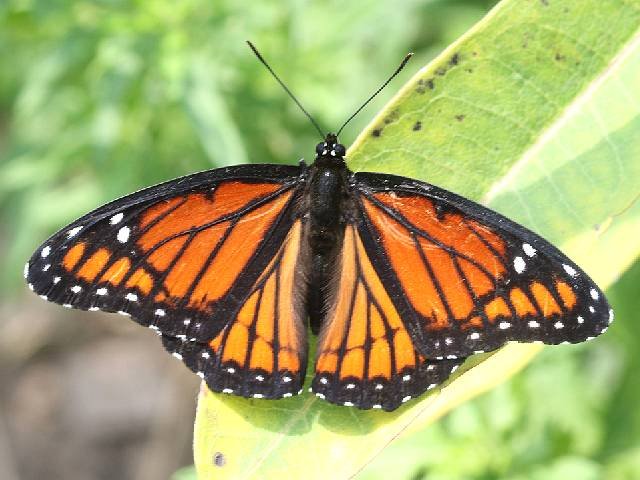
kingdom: Animalia
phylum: Arthropoda
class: Insecta
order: Lepidoptera
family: Nymphalidae
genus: Limenitis
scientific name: Limenitis archippus
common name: Viceroy
